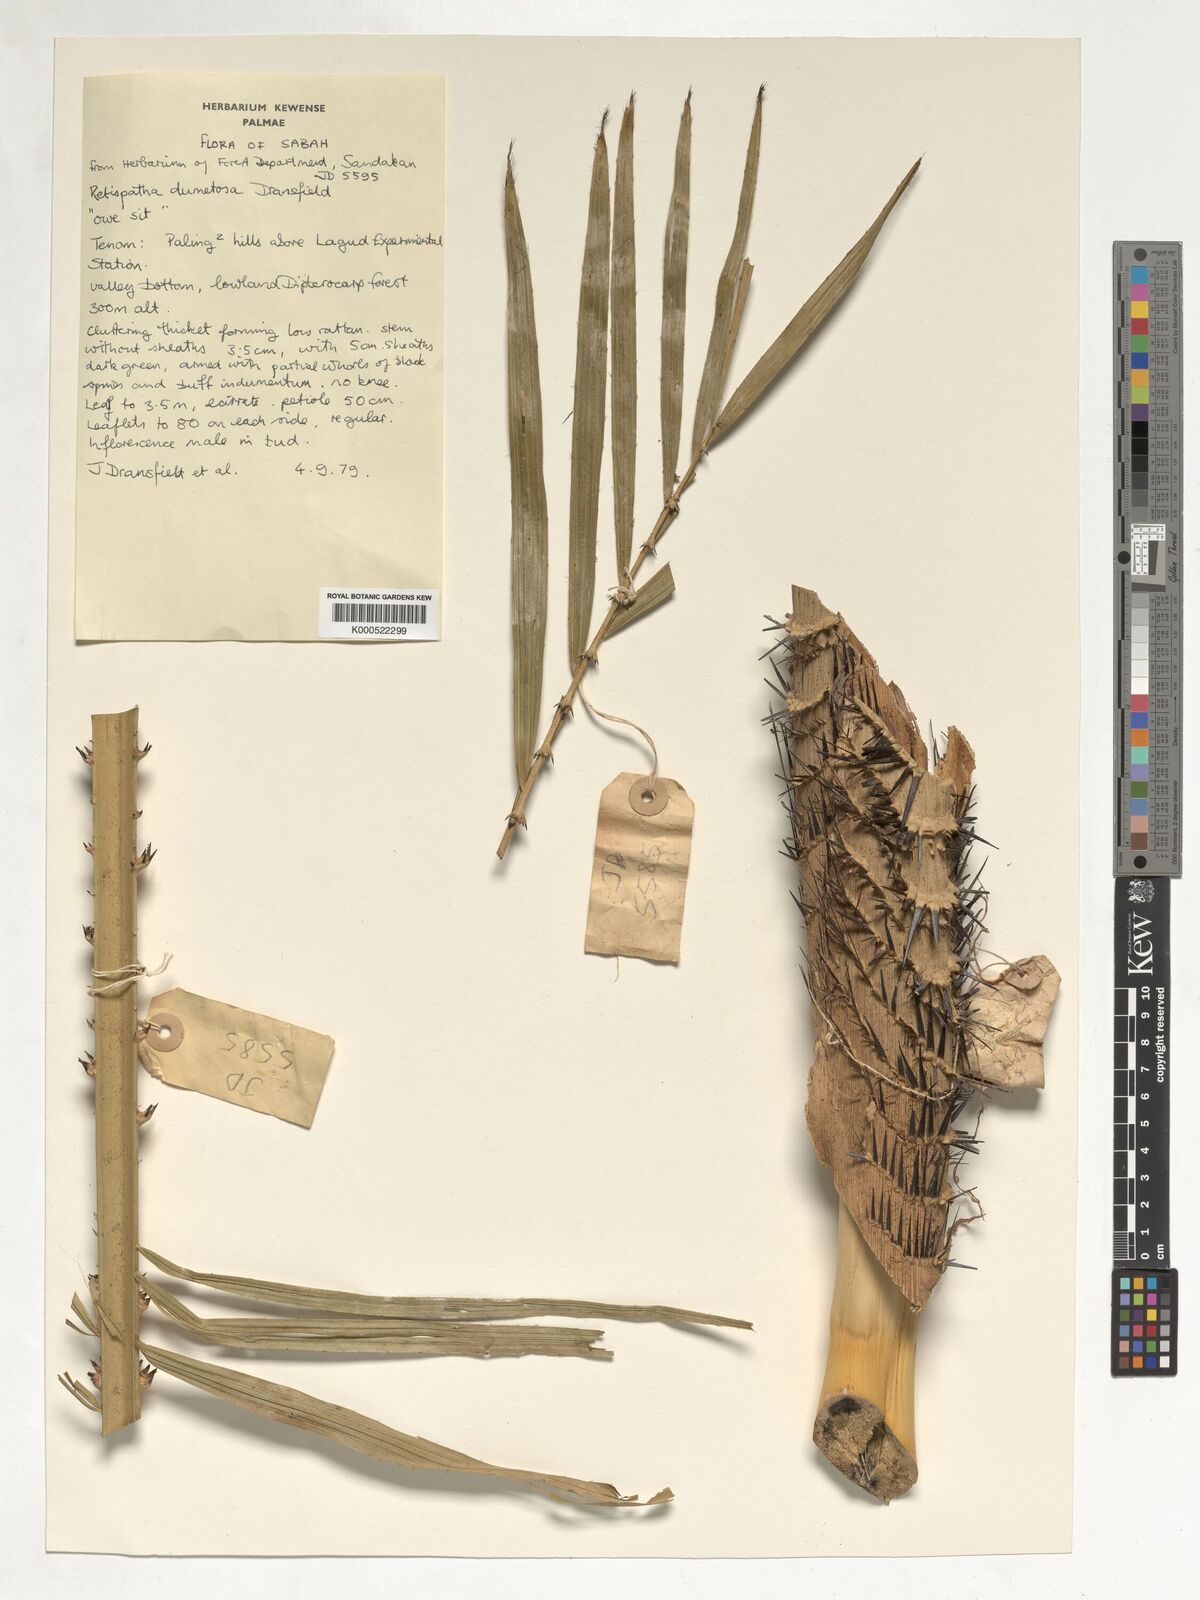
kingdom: Plantae
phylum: Tracheophyta
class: Liliopsida
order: Arecales
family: Arecaceae
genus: Calamus
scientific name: Calamus dumetosus
